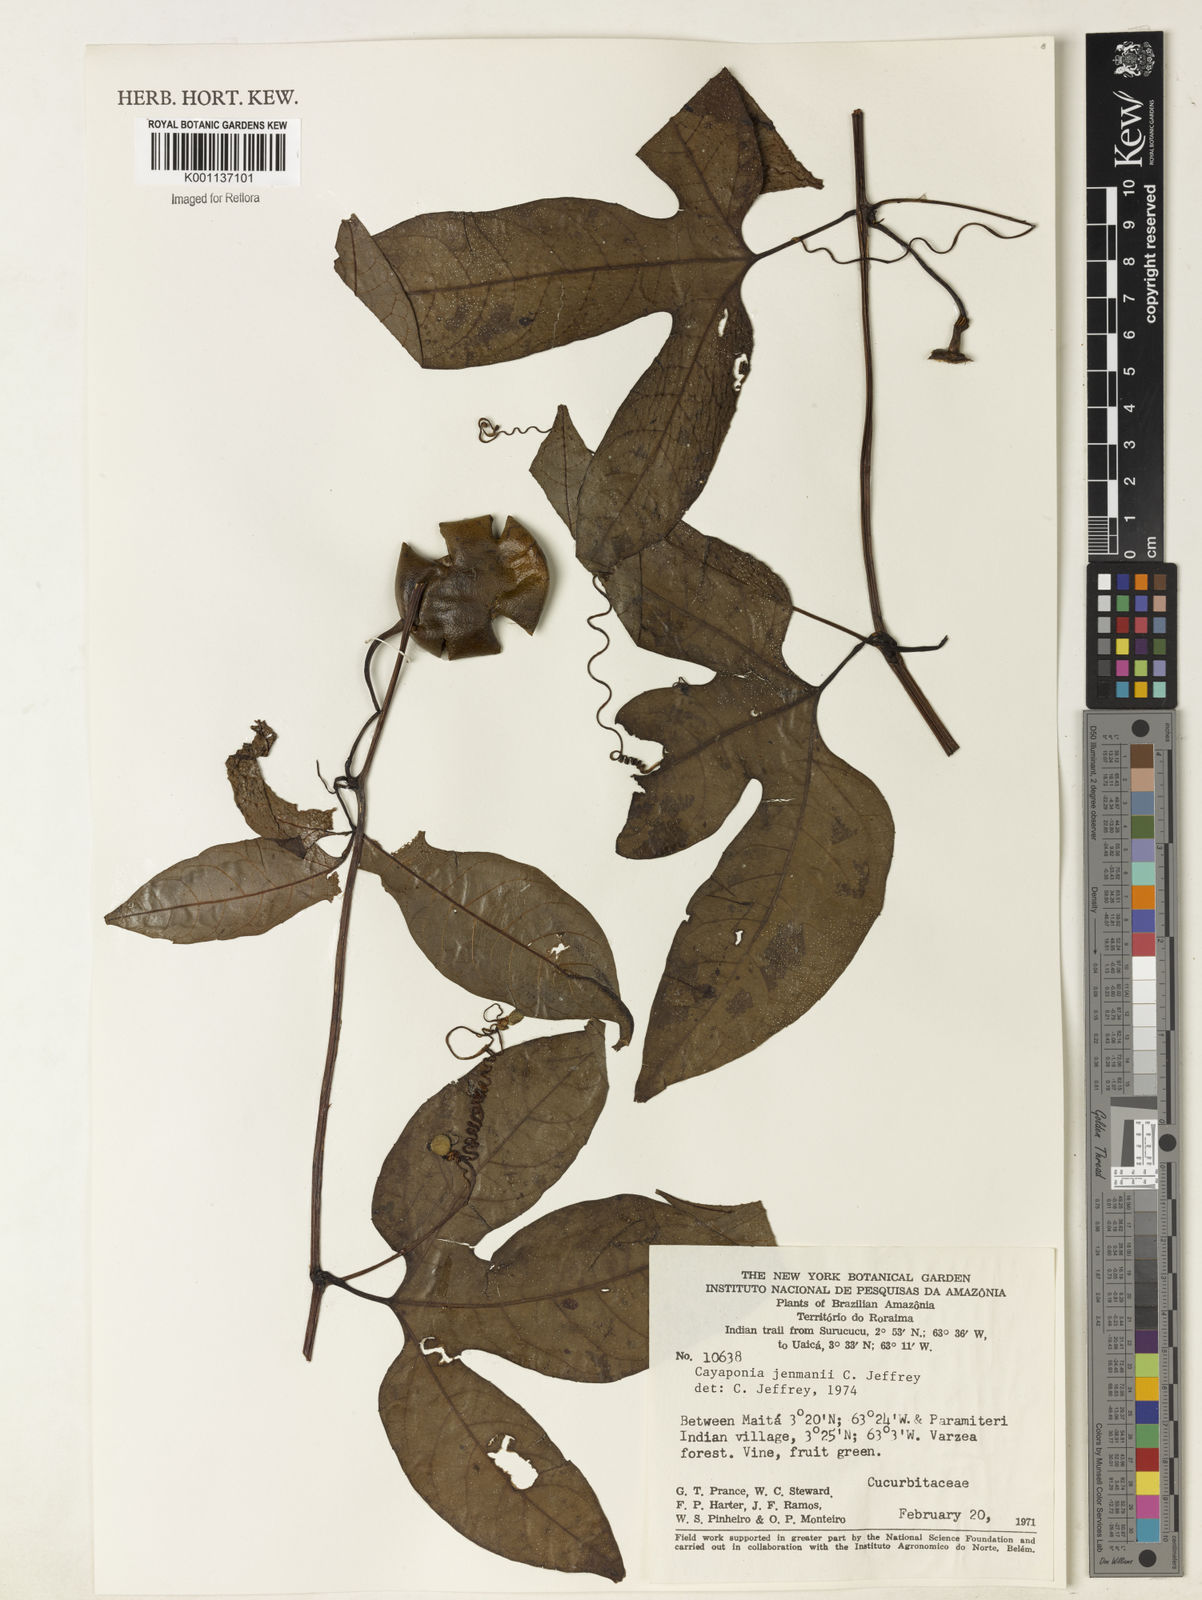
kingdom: Plantae
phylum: Tracheophyta
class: Magnoliopsida
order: Cucurbitales
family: Cucurbitaceae
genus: Cayaponia
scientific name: Cayaponia jenmanii
